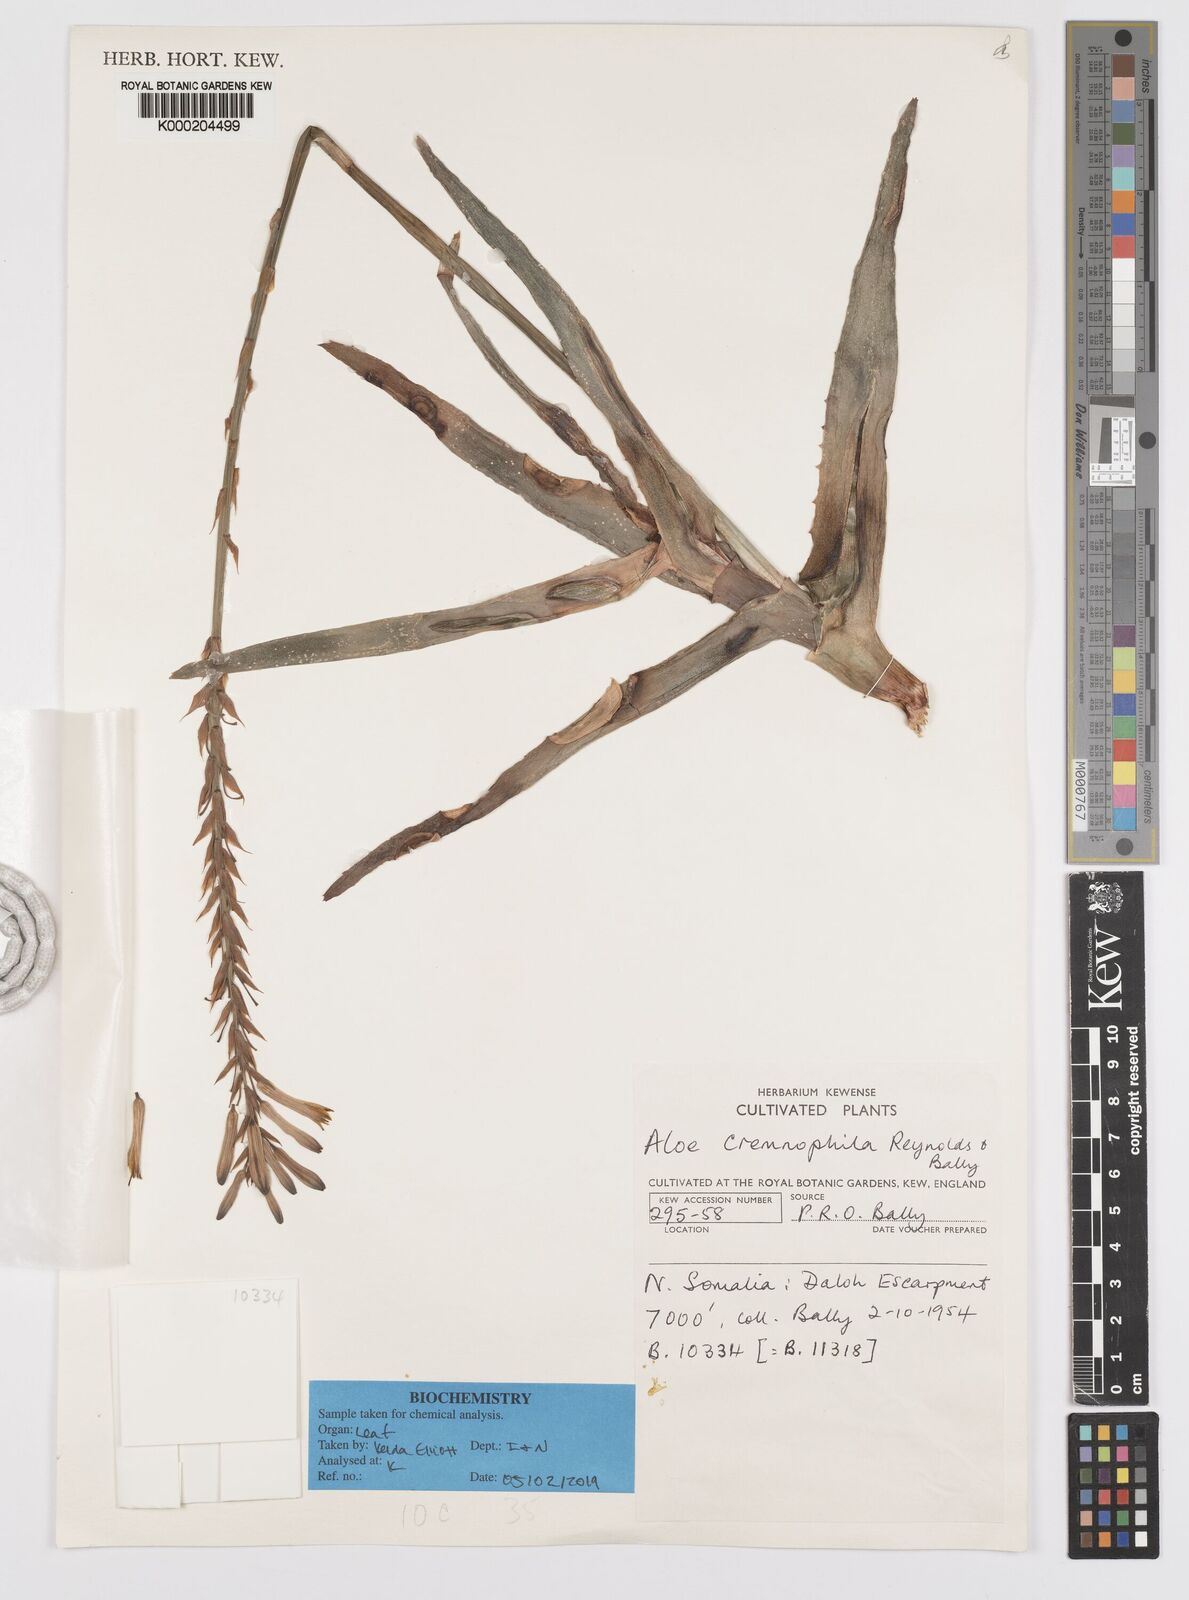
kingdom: Plantae
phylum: Tracheophyta
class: Liliopsida
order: Asparagales
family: Asphodelaceae
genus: Aloe
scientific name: Aloe cremnophila
